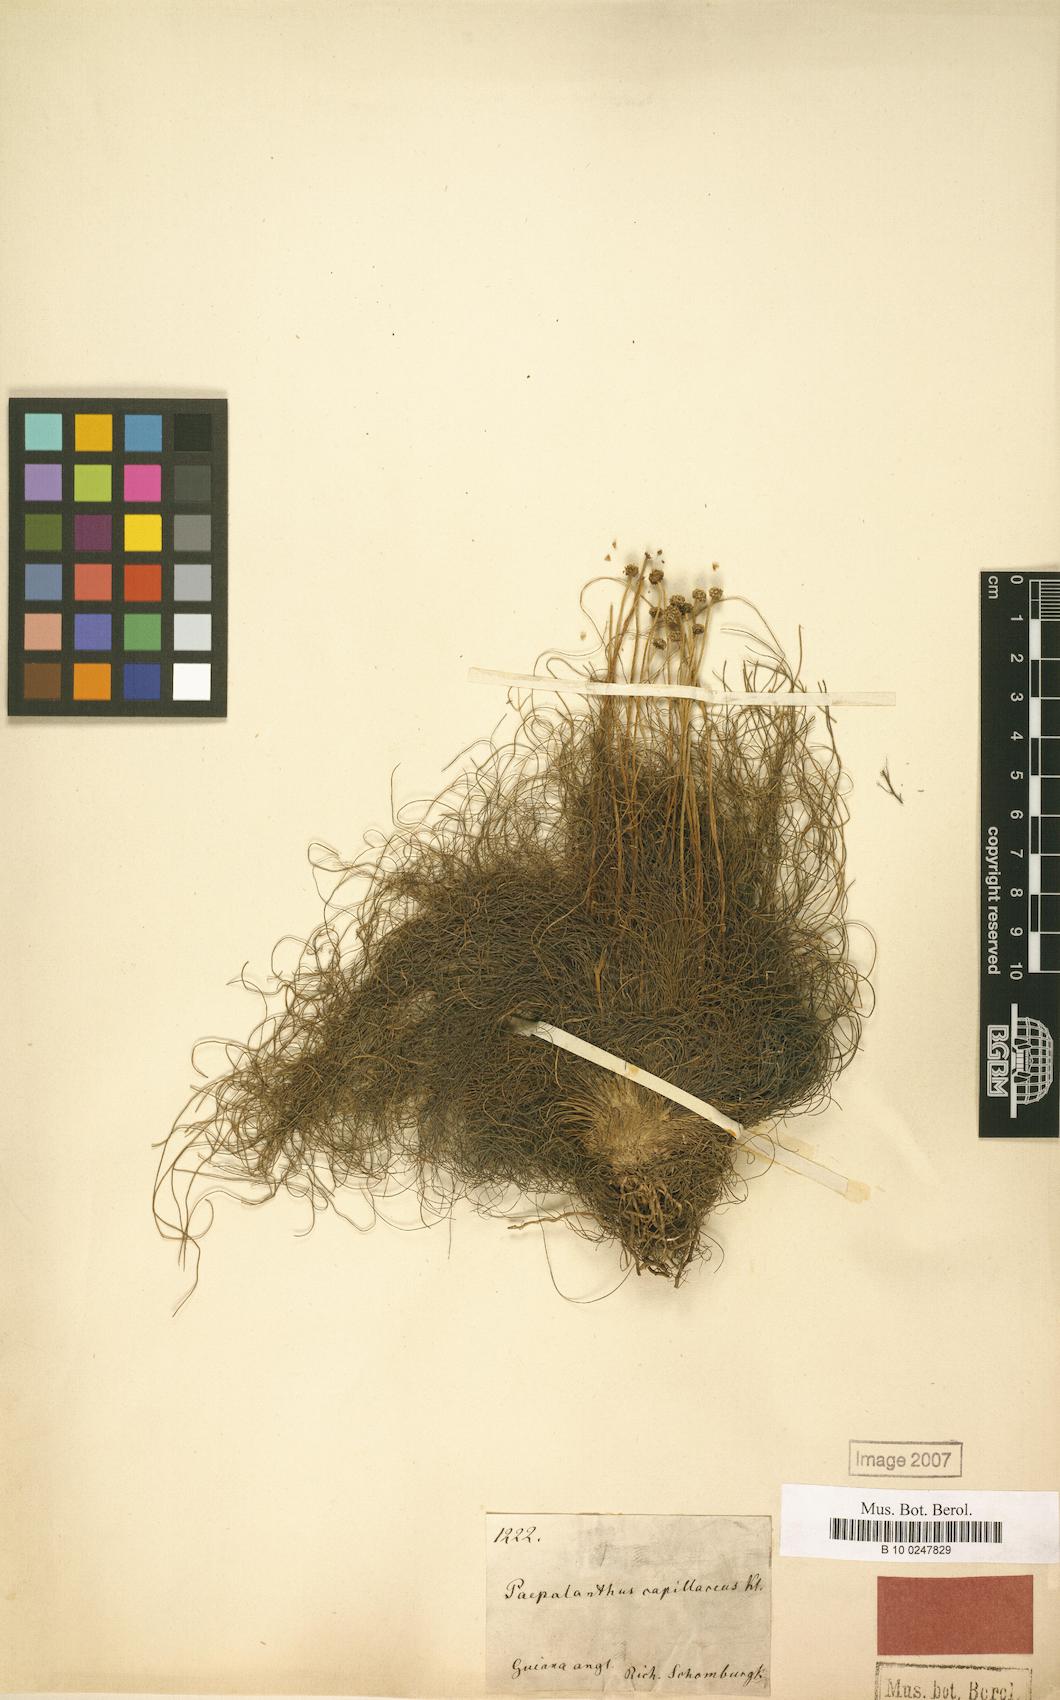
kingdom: Plantae
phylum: Tracheophyta
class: Liliopsida
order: Poales
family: Eriocaulaceae
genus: Paepalanthus
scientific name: Paepalanthus capillaceus
